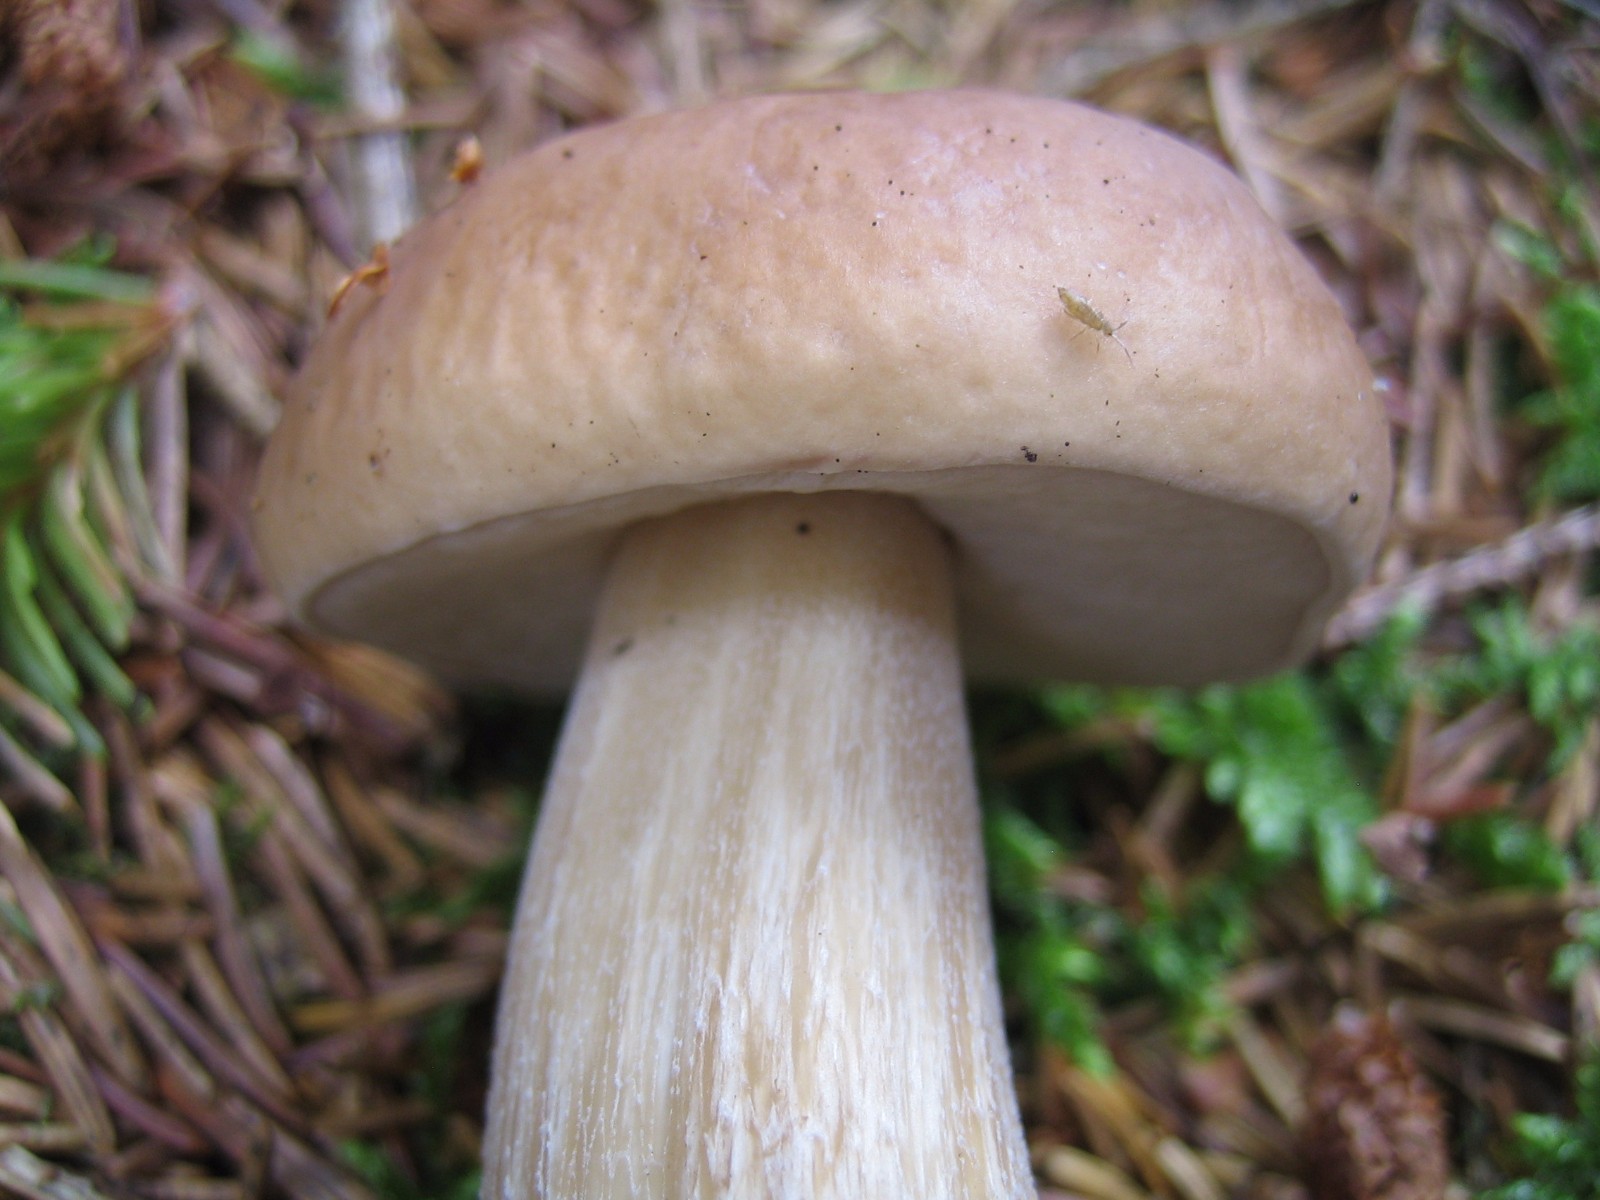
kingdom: Fungi
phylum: Basidiomycota
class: Agaricomycetes
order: Boletales
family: Boletaceae
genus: Boletus
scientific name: Boletus edulis
